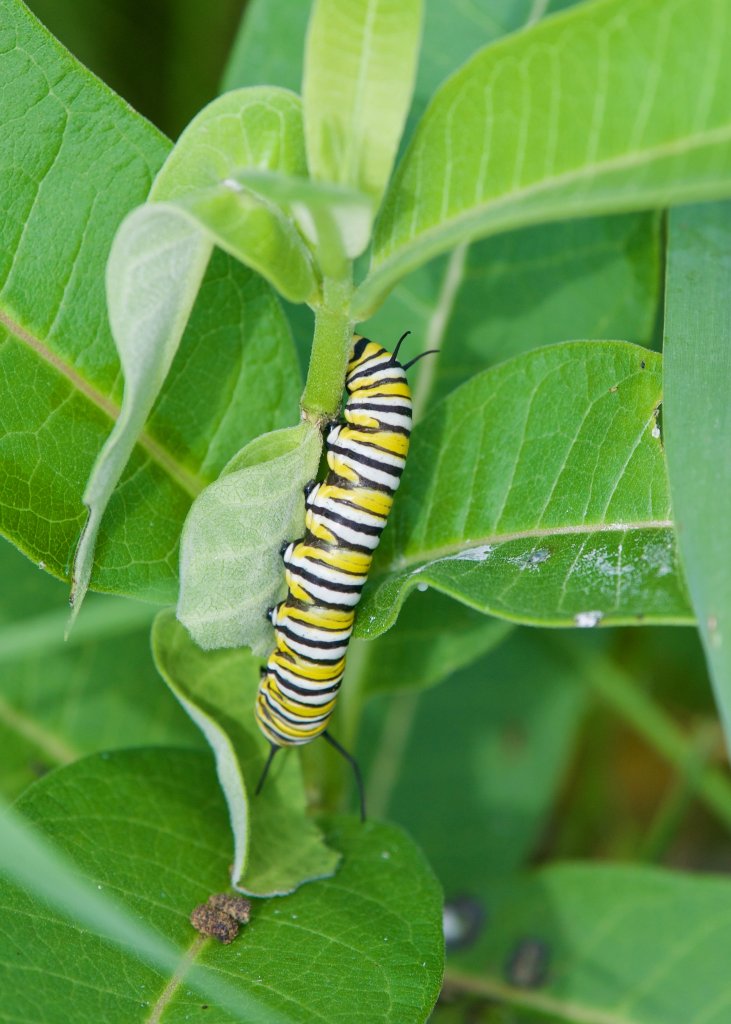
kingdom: Animalia
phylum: Arthropoda
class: Insecta
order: Lepidoptera
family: Nymphalidae
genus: Danaus
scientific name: Danaus plexippus
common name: Monarch
